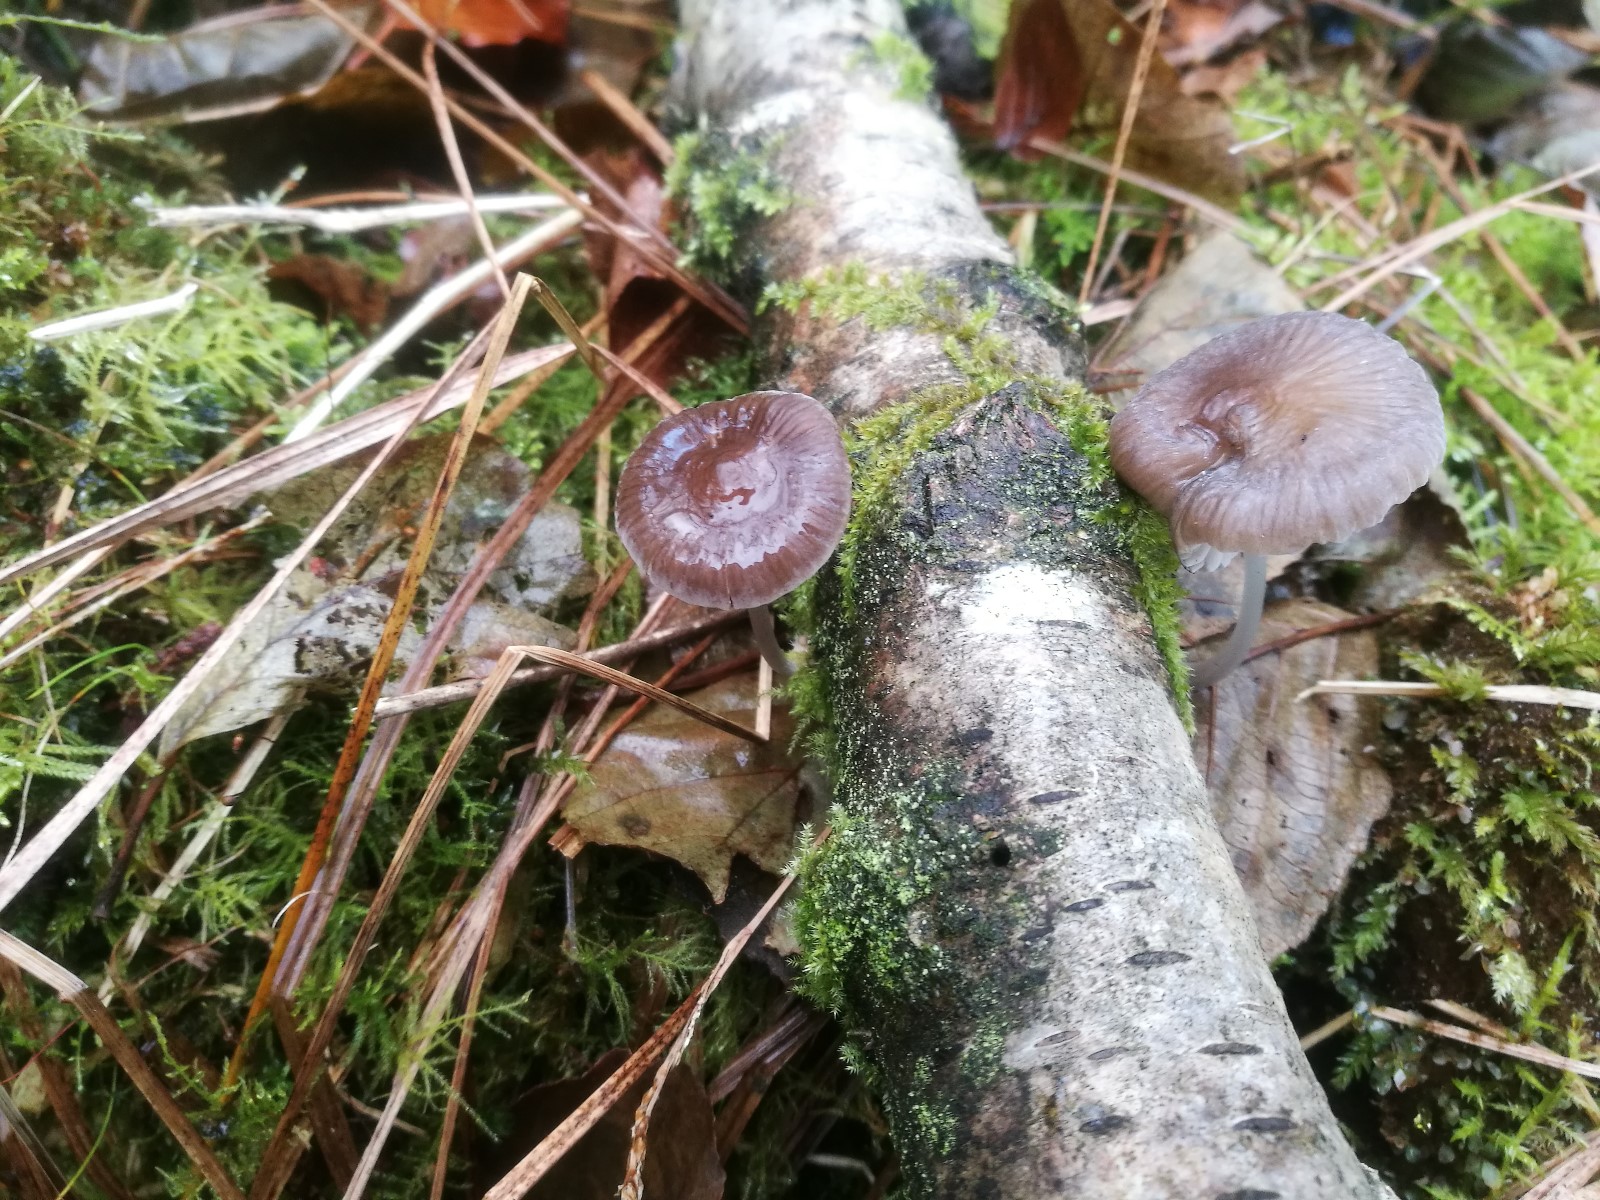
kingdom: Fungi
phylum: Basidiomycota
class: Agaricomycetes
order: Agaricales
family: Mycenaceae
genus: Mycena
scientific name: Mycena
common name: huesvamp
